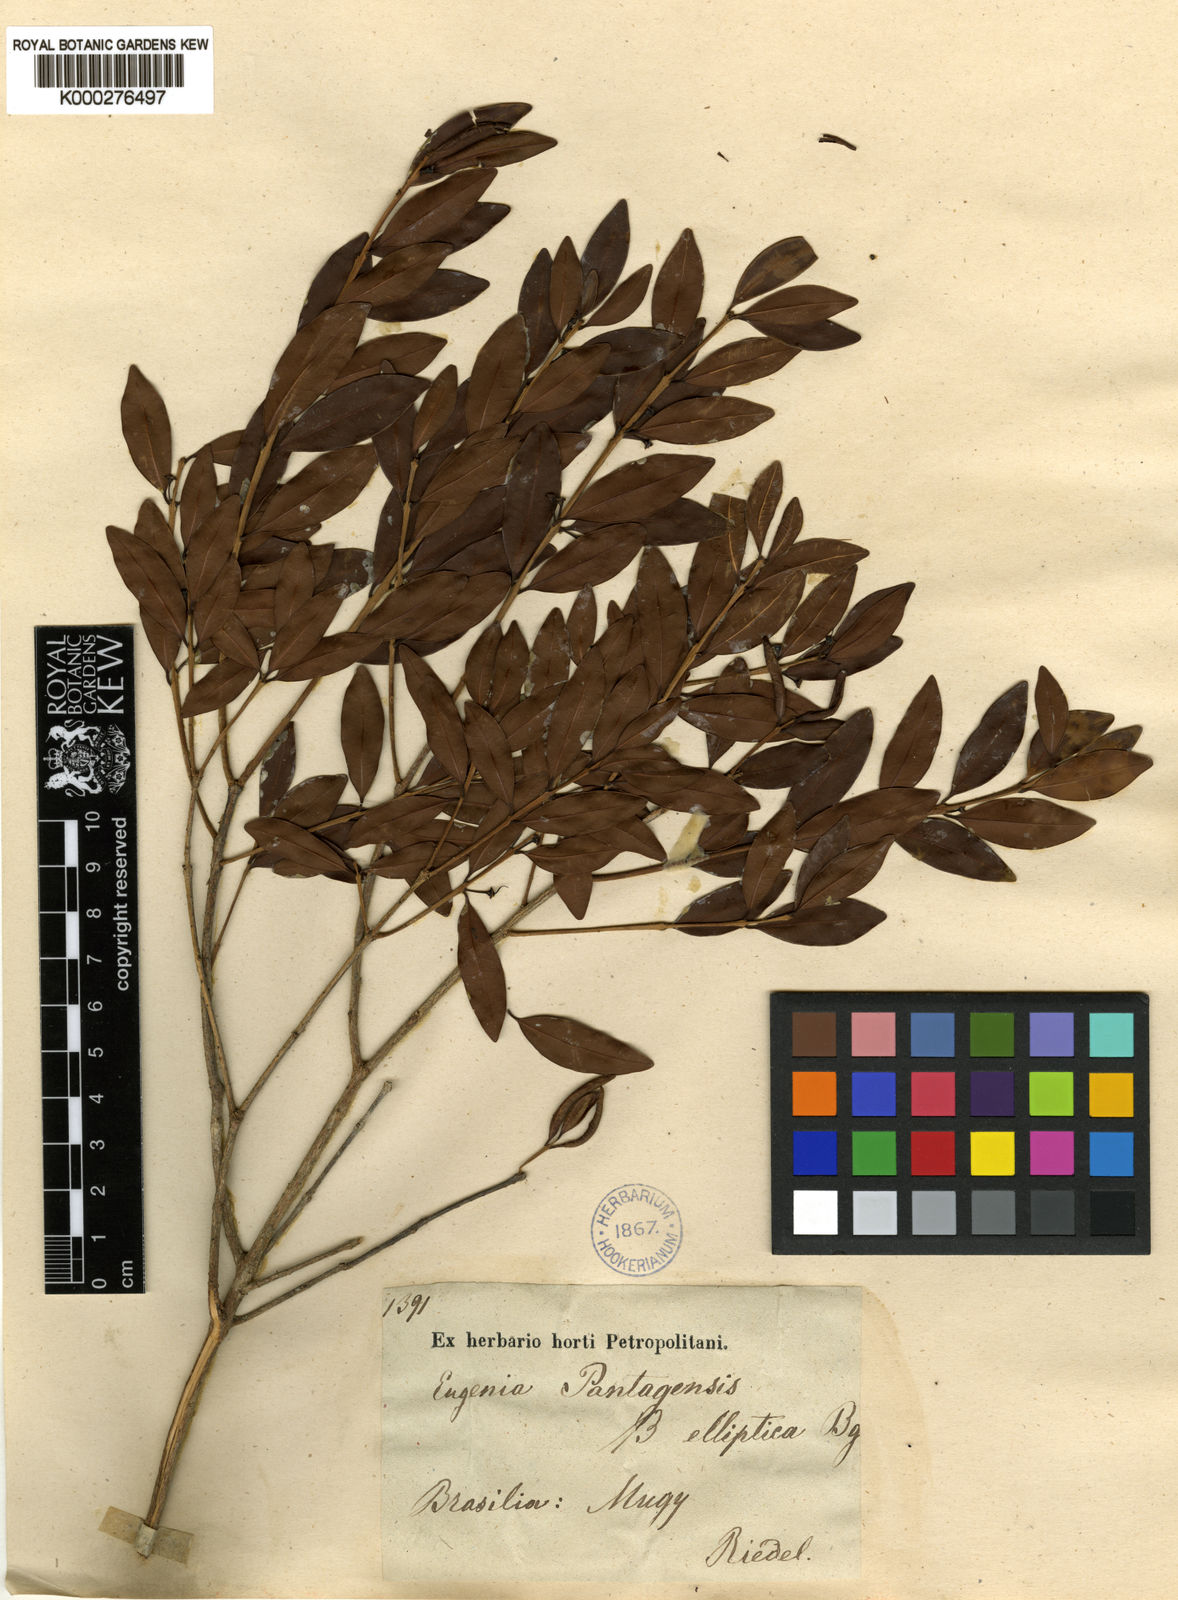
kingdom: Plantae
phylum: Tracheophyta
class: Magnoliopsida
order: Myrtales
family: Myrtaceae
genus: Eugenia
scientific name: Eugenia pantagensis
